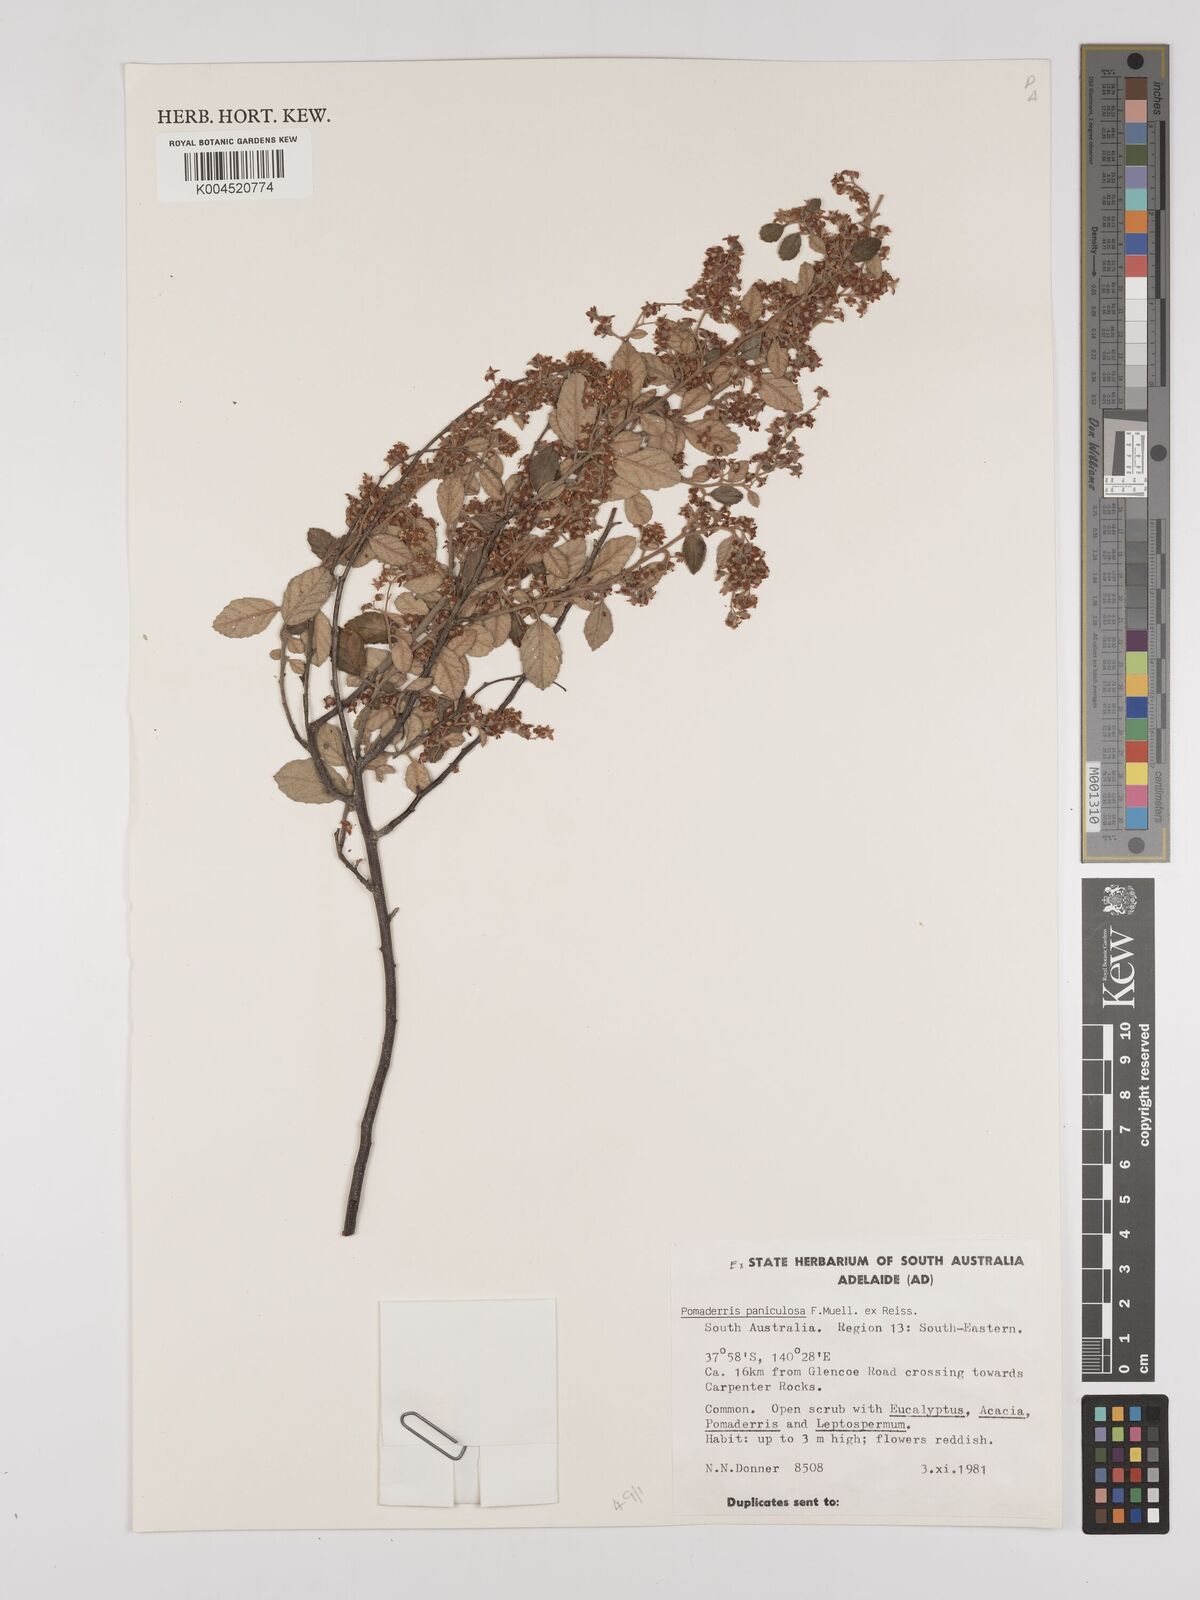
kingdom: Plantae
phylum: Tracheophyta
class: Magnoliopsida
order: Rosales
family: Rhamnaceae
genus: Pomaderris
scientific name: Pomaderris paniculosa
